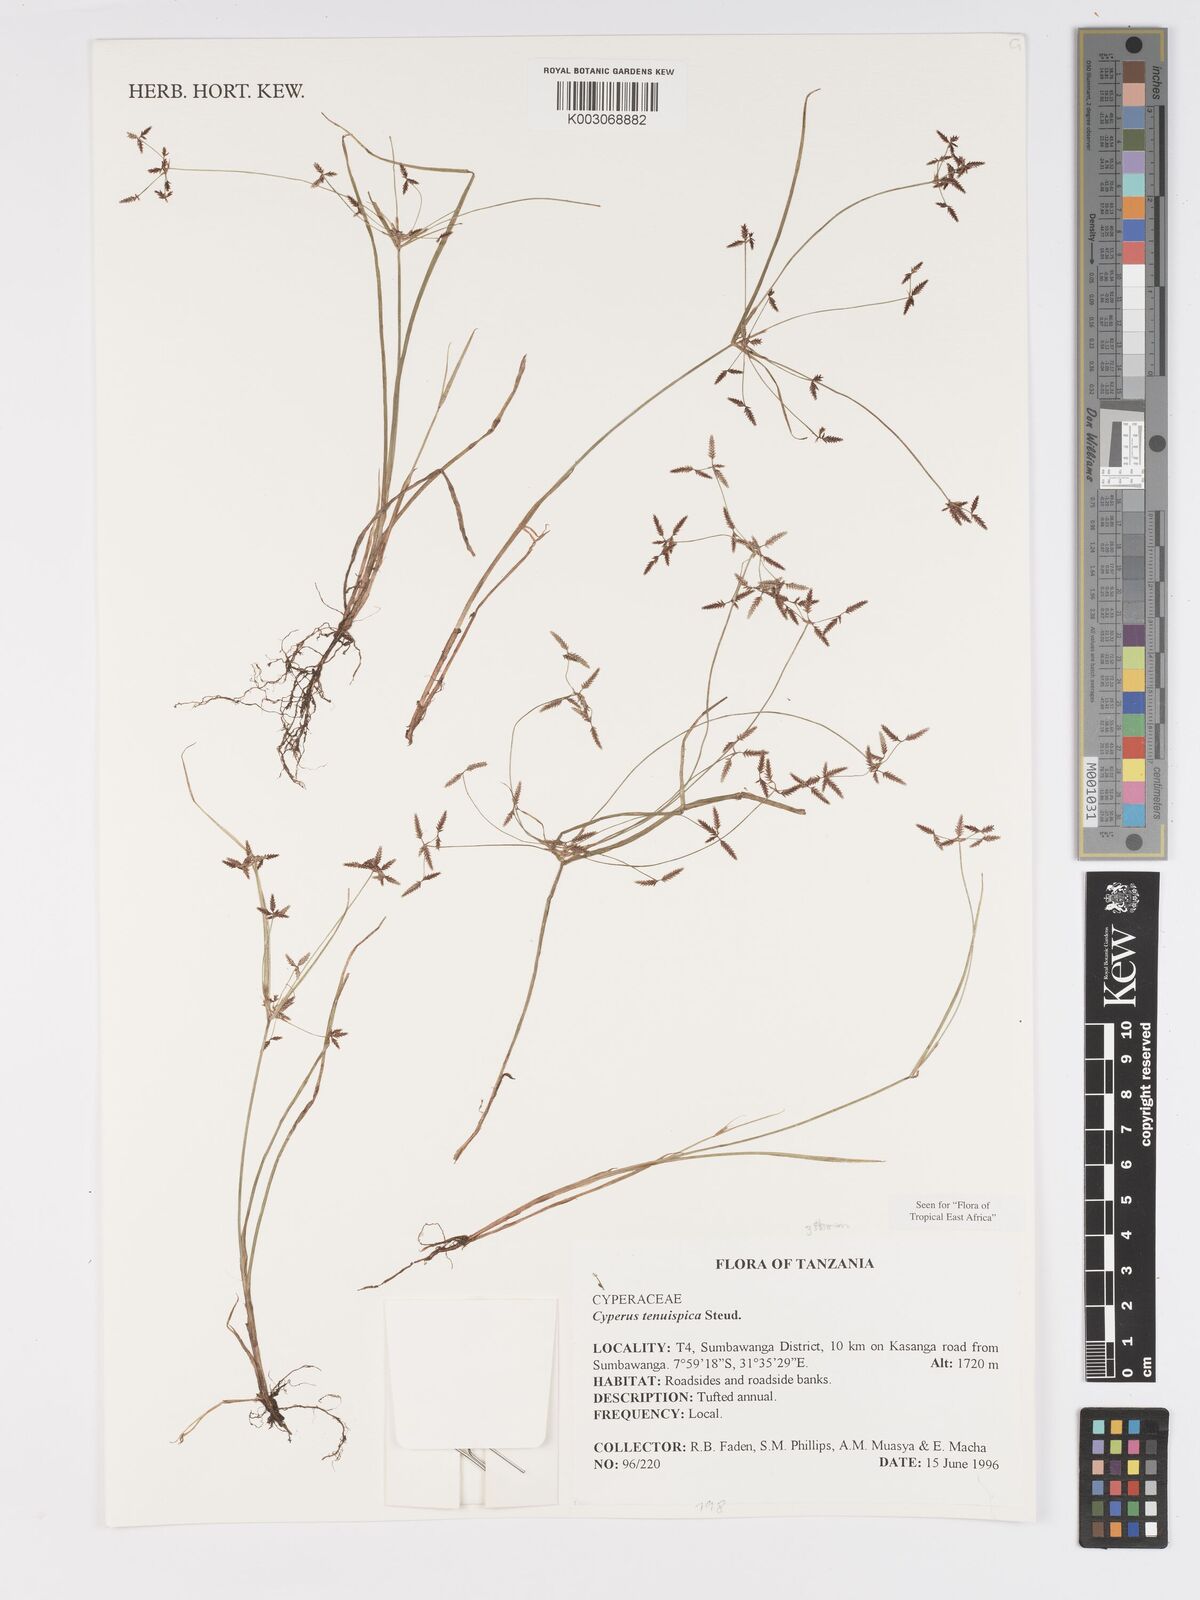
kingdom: Plantae
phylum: Tracheophyta
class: Liliopsida
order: Poales
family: Cyperaceae
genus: Cyperus
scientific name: Cyperus tenuispica
